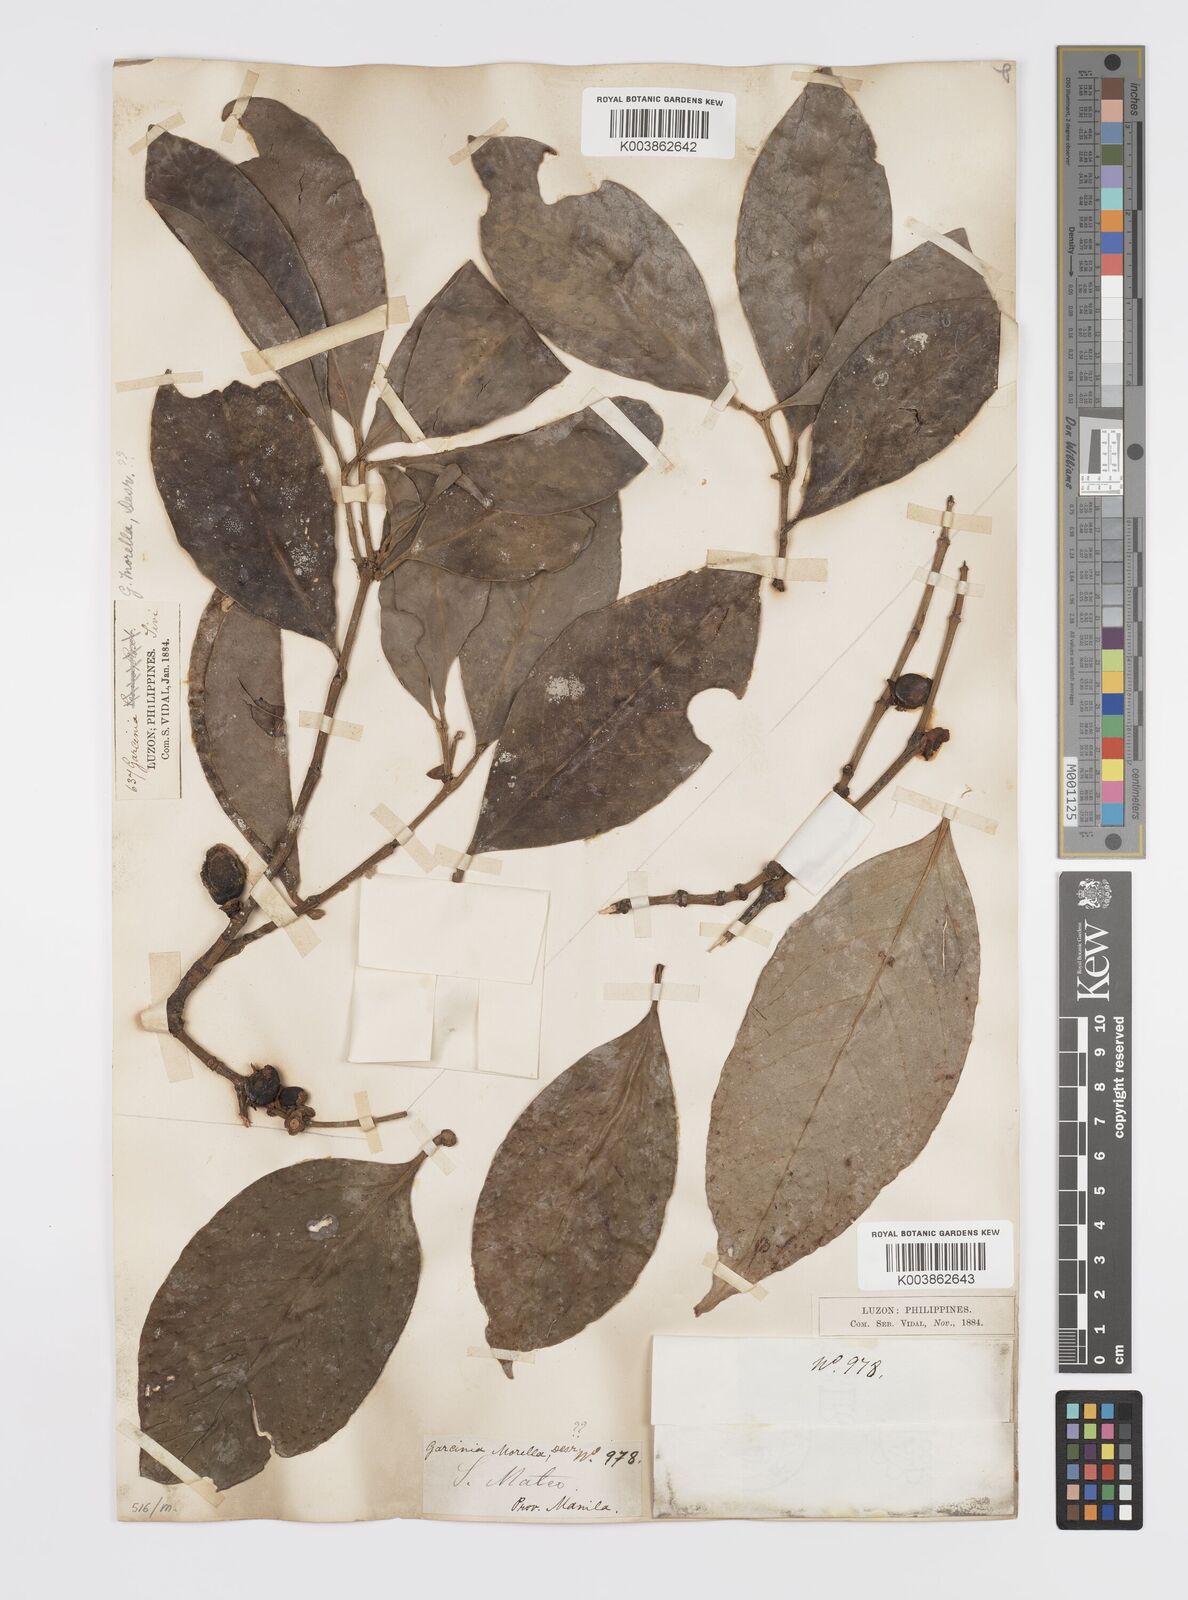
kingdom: Plantae
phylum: Tracheophyta
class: Magnoliopsida
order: Malpighiales
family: Clusiaceae
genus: Garcinia
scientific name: Garcinia
